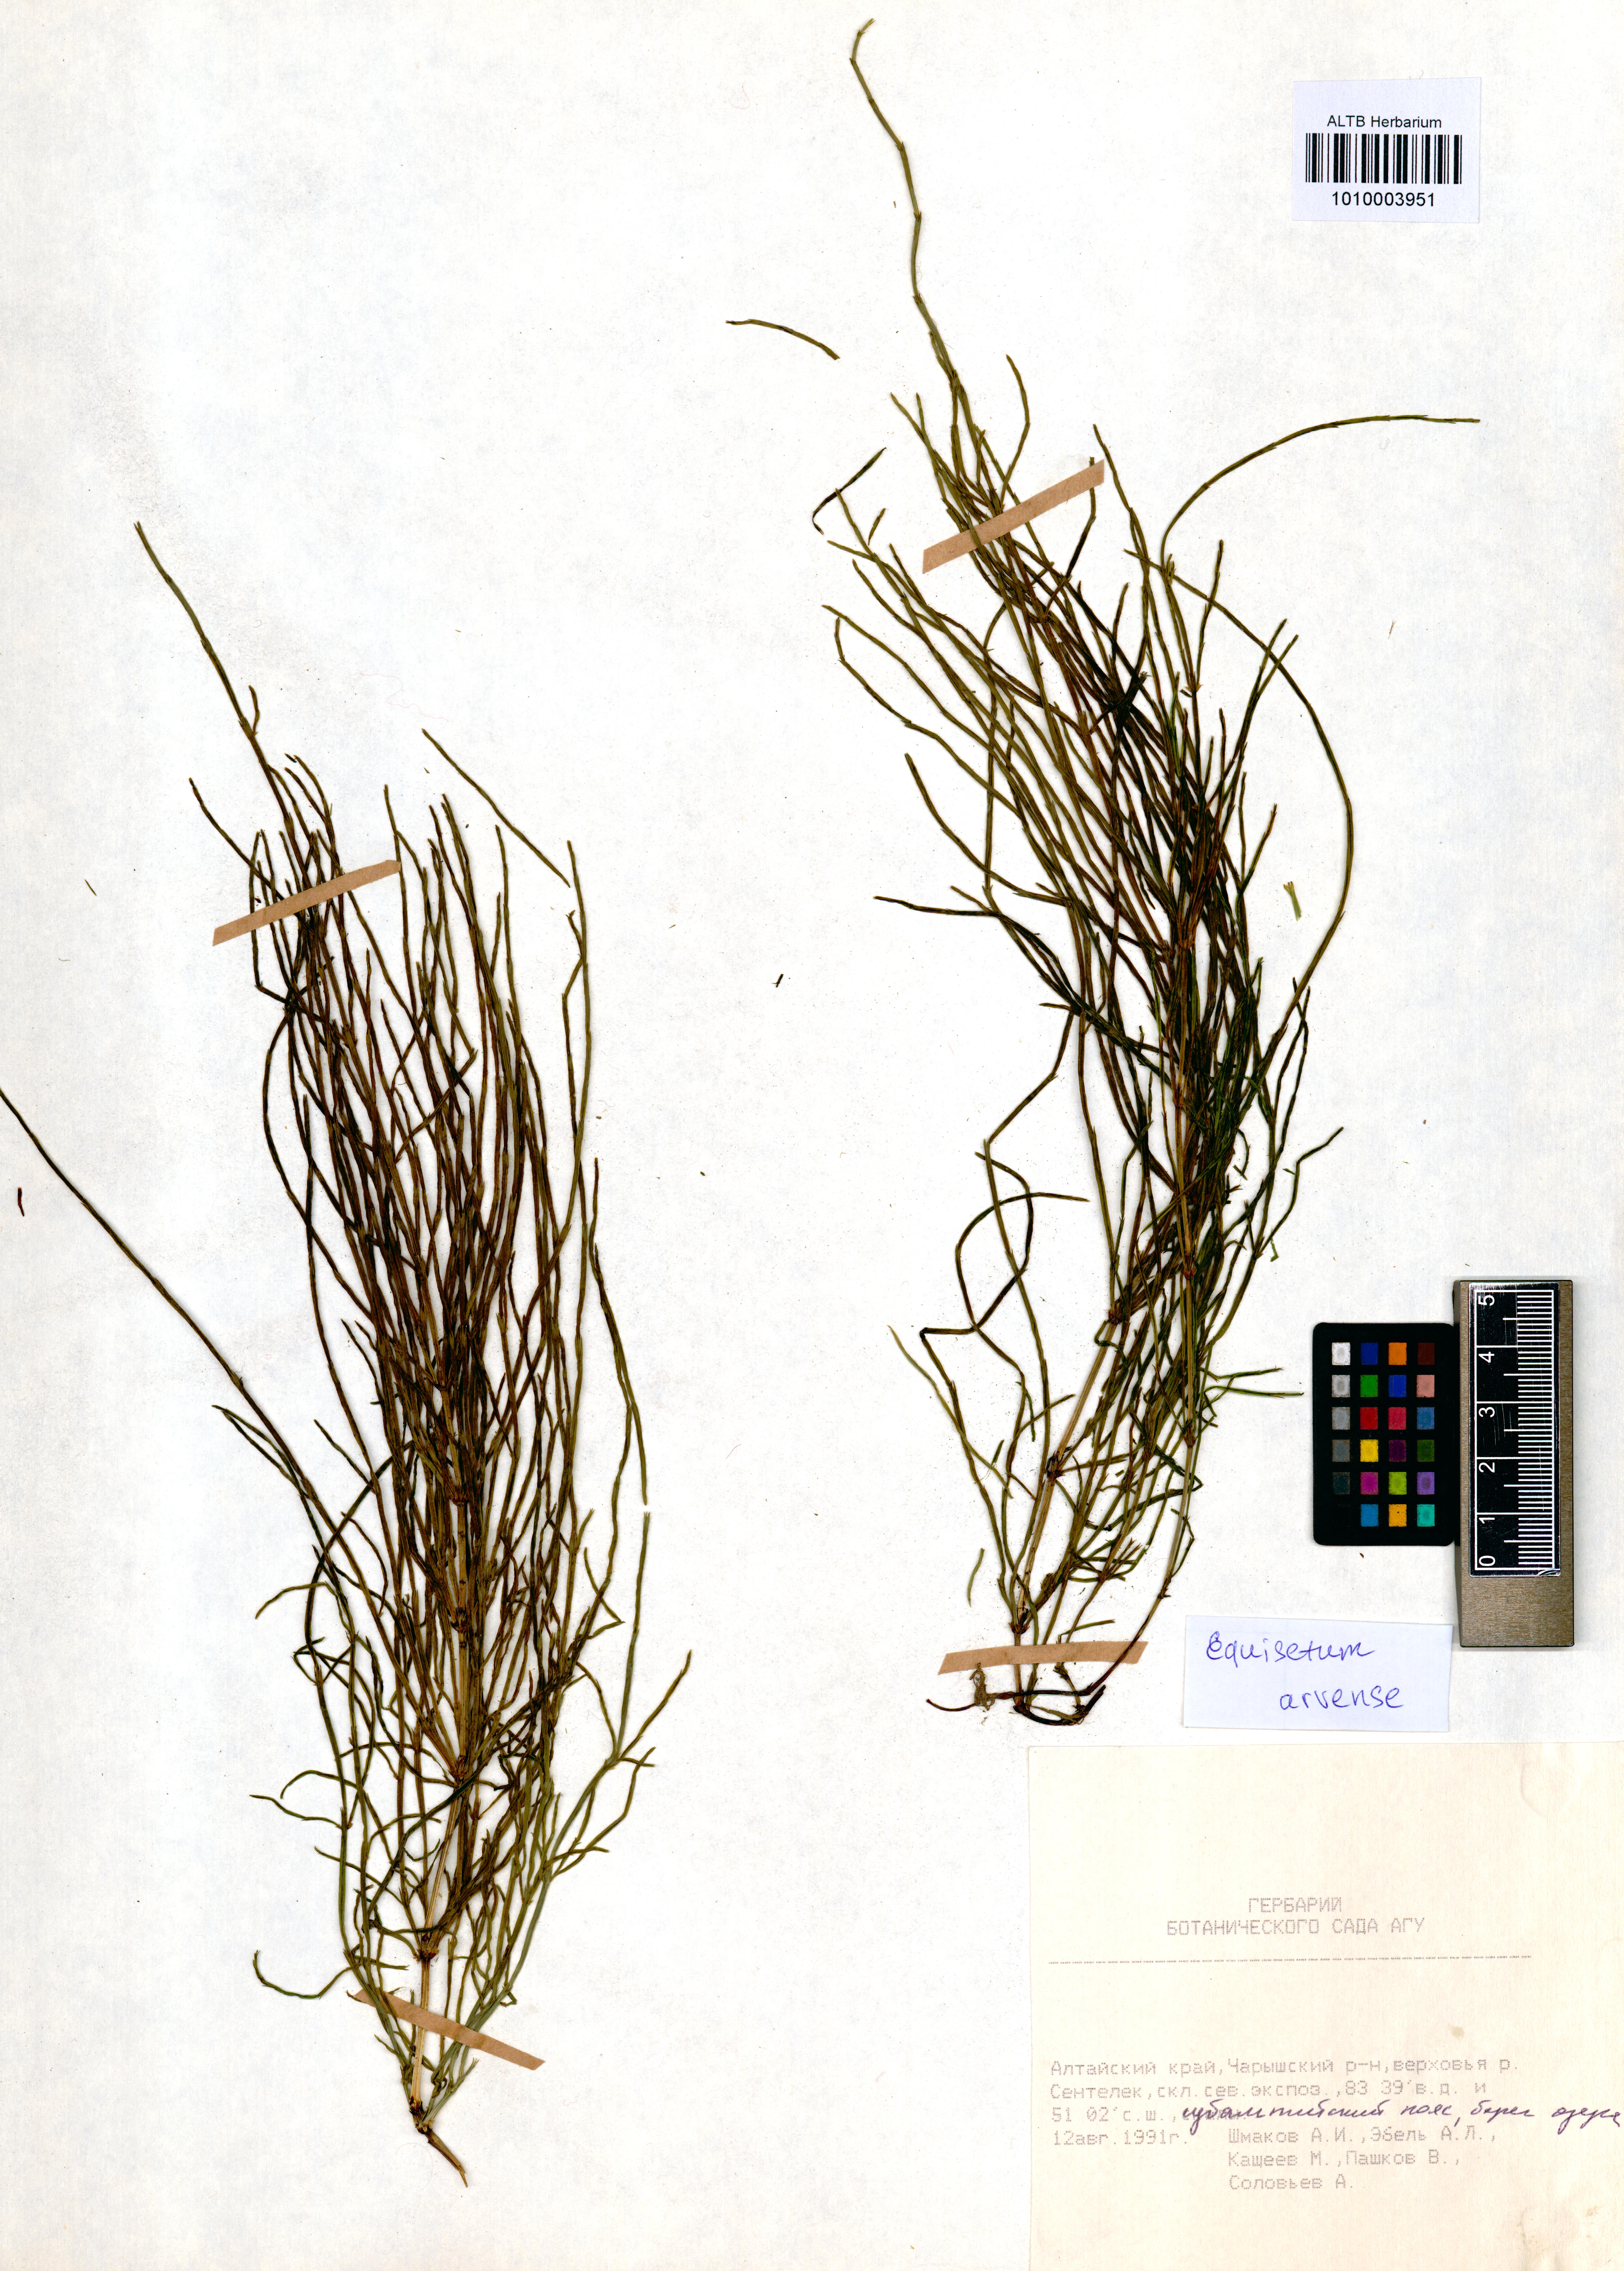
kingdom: Plantae
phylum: Tracheophyta
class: Polypodiopsida
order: Equisetales
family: Equisetaceae
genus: Equisetum
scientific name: Equisetum arvense
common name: Field horsetail
